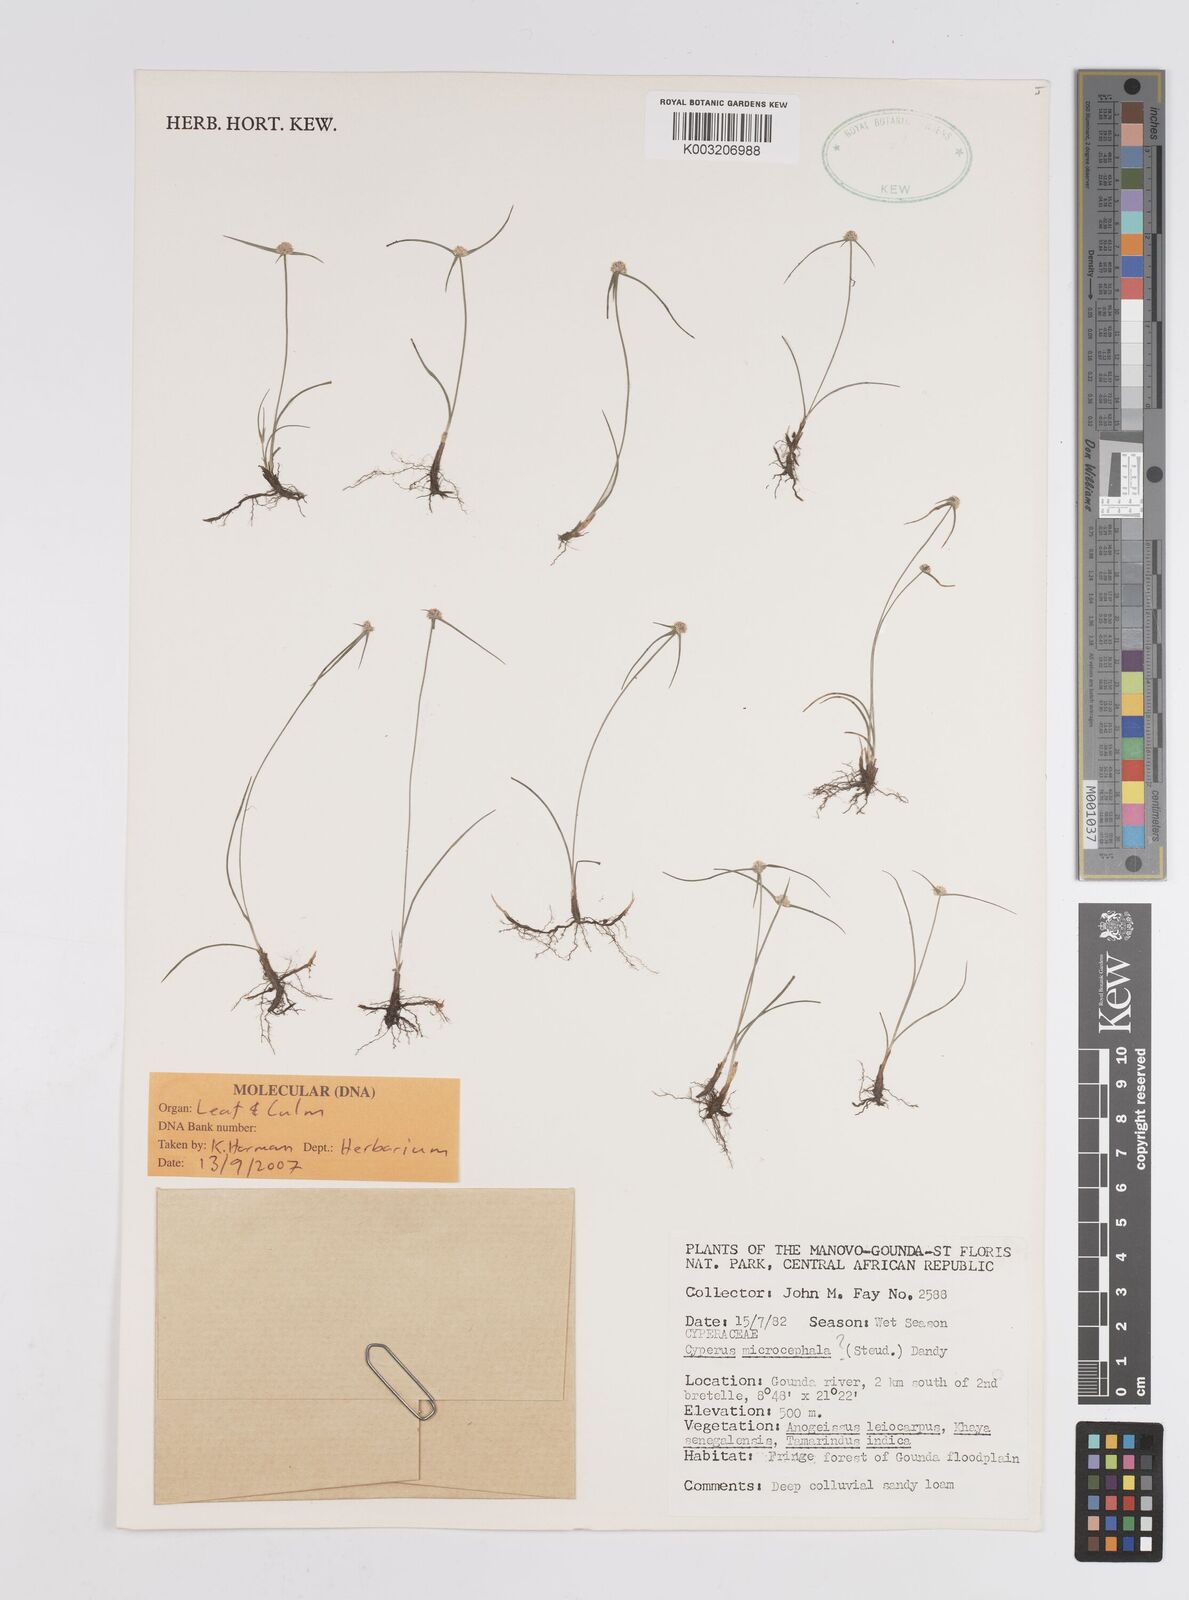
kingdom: Plantae
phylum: Tracheophyta
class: Liliopsida
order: Poales
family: Cyperaceae
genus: Cyperus
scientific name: Cyperus microcephalus
